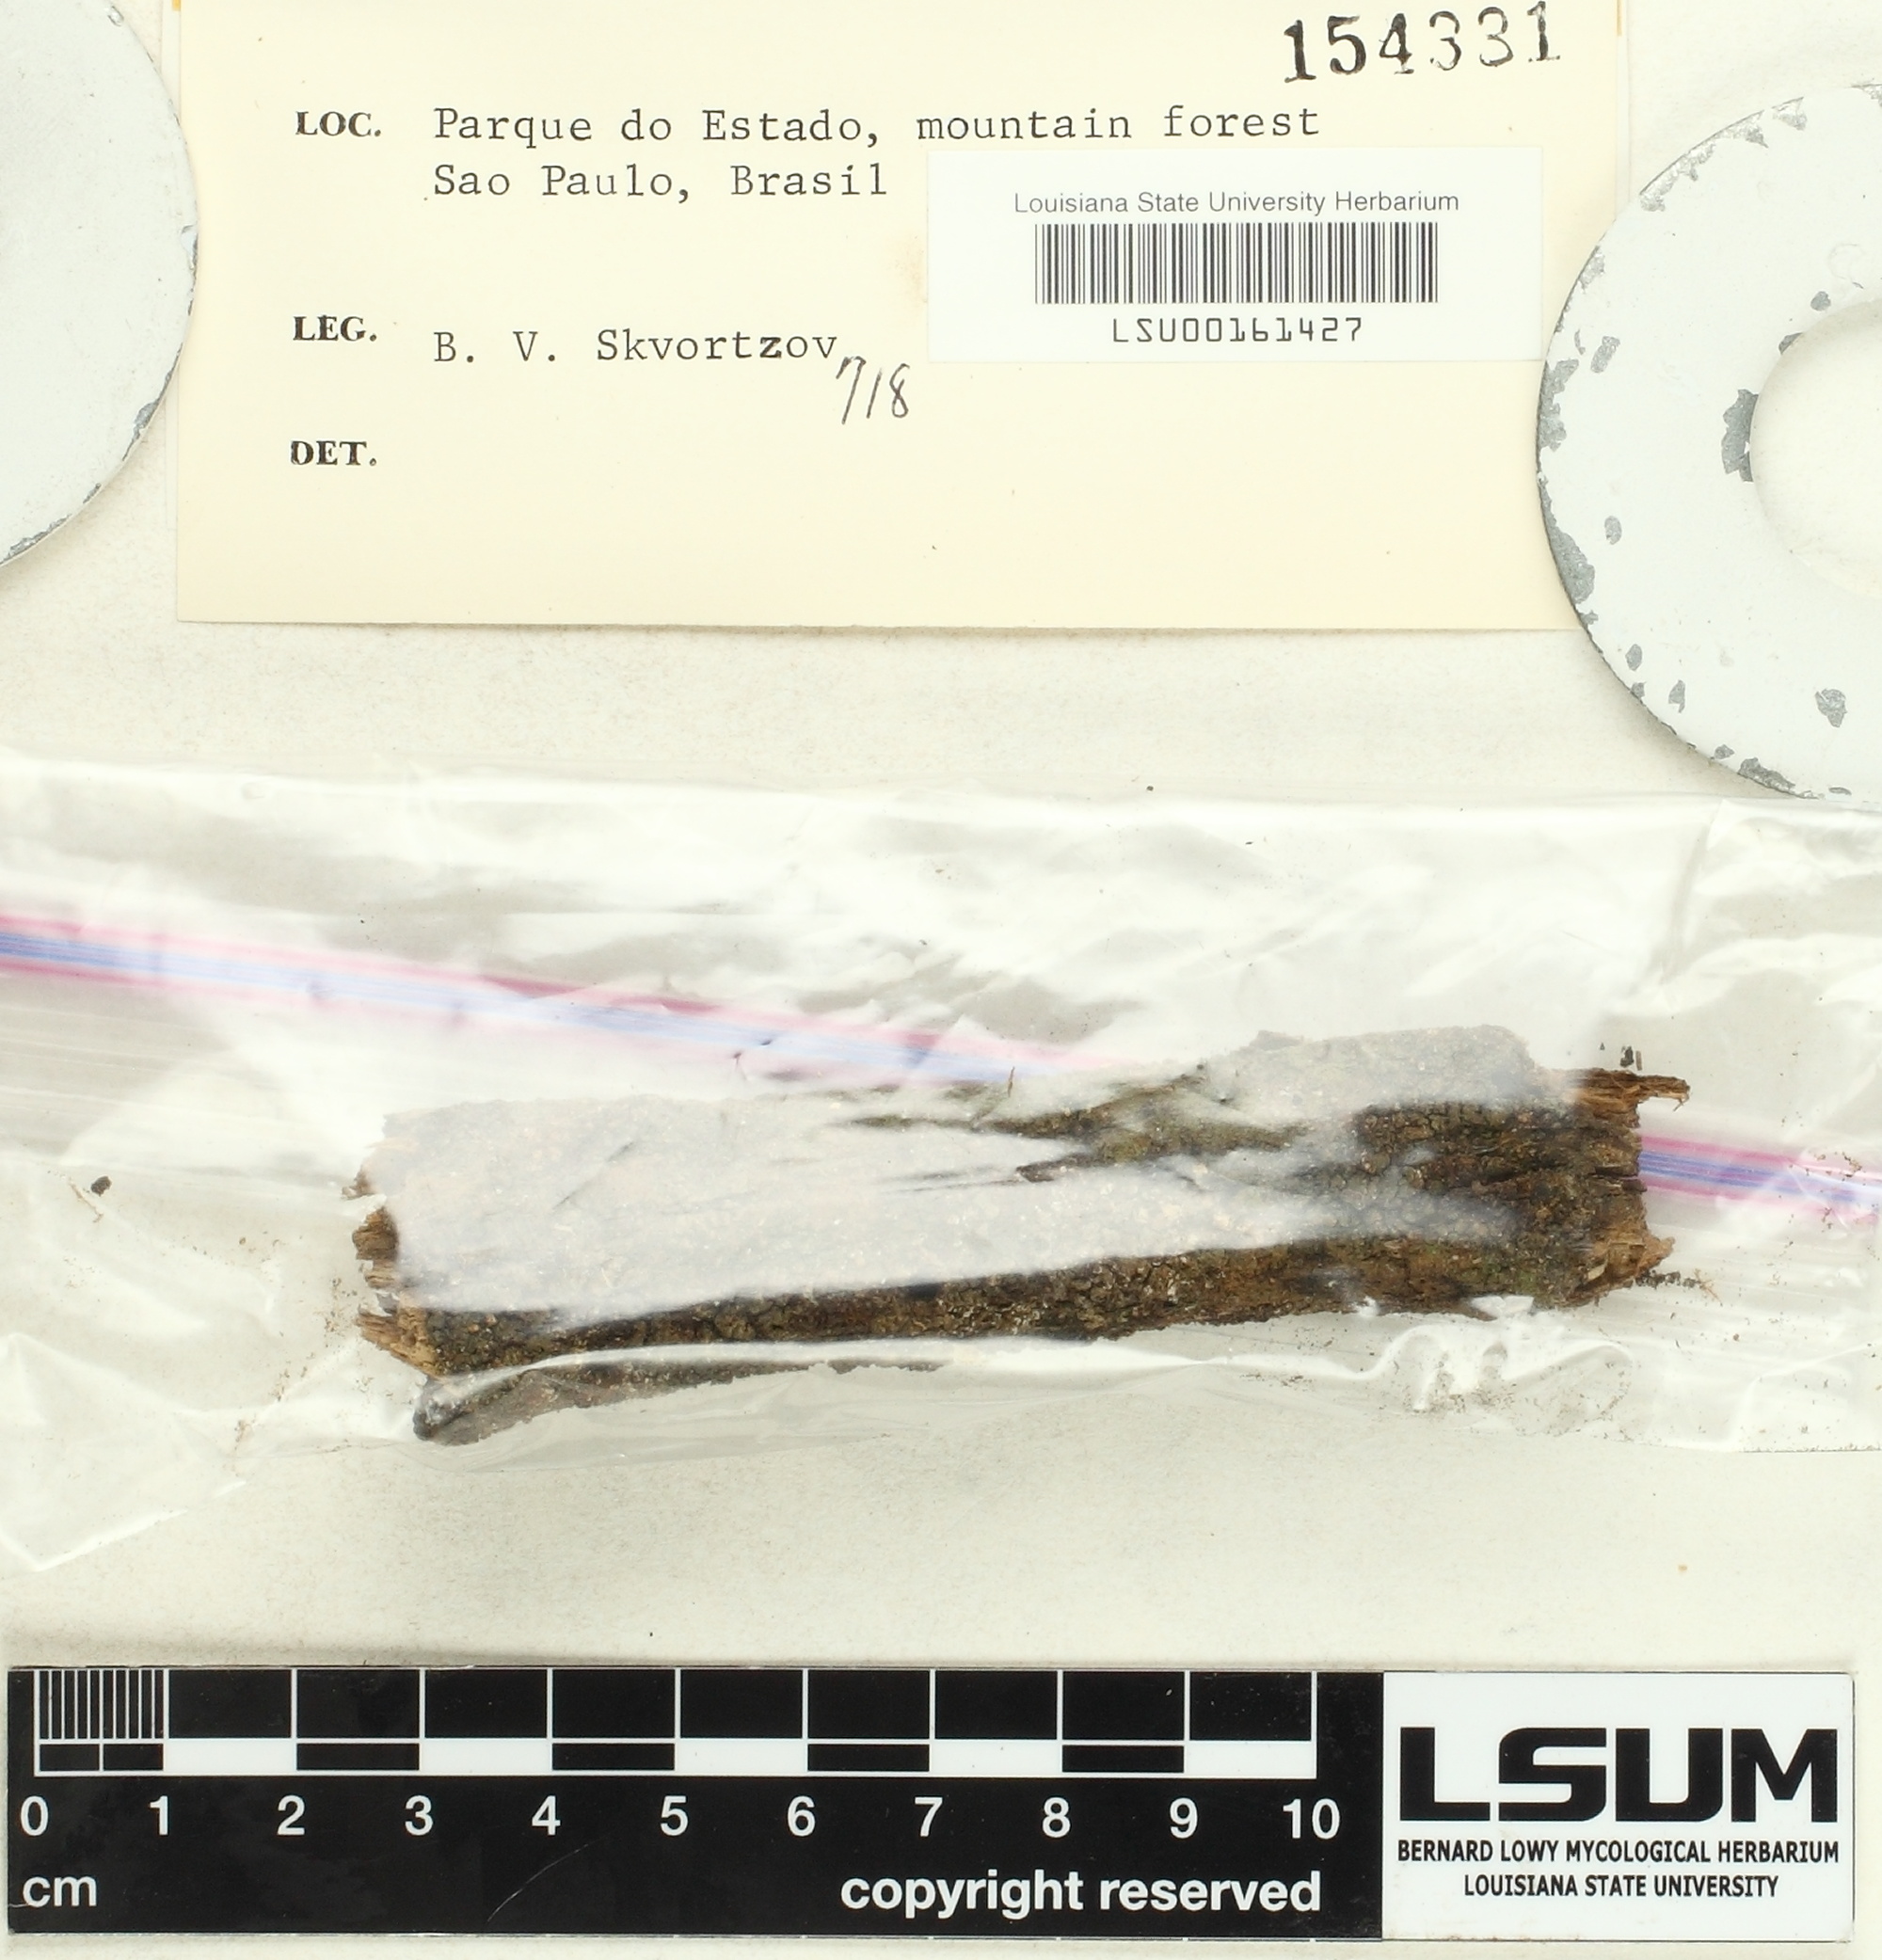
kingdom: Fungi
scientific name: Fungi
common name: Fungi
